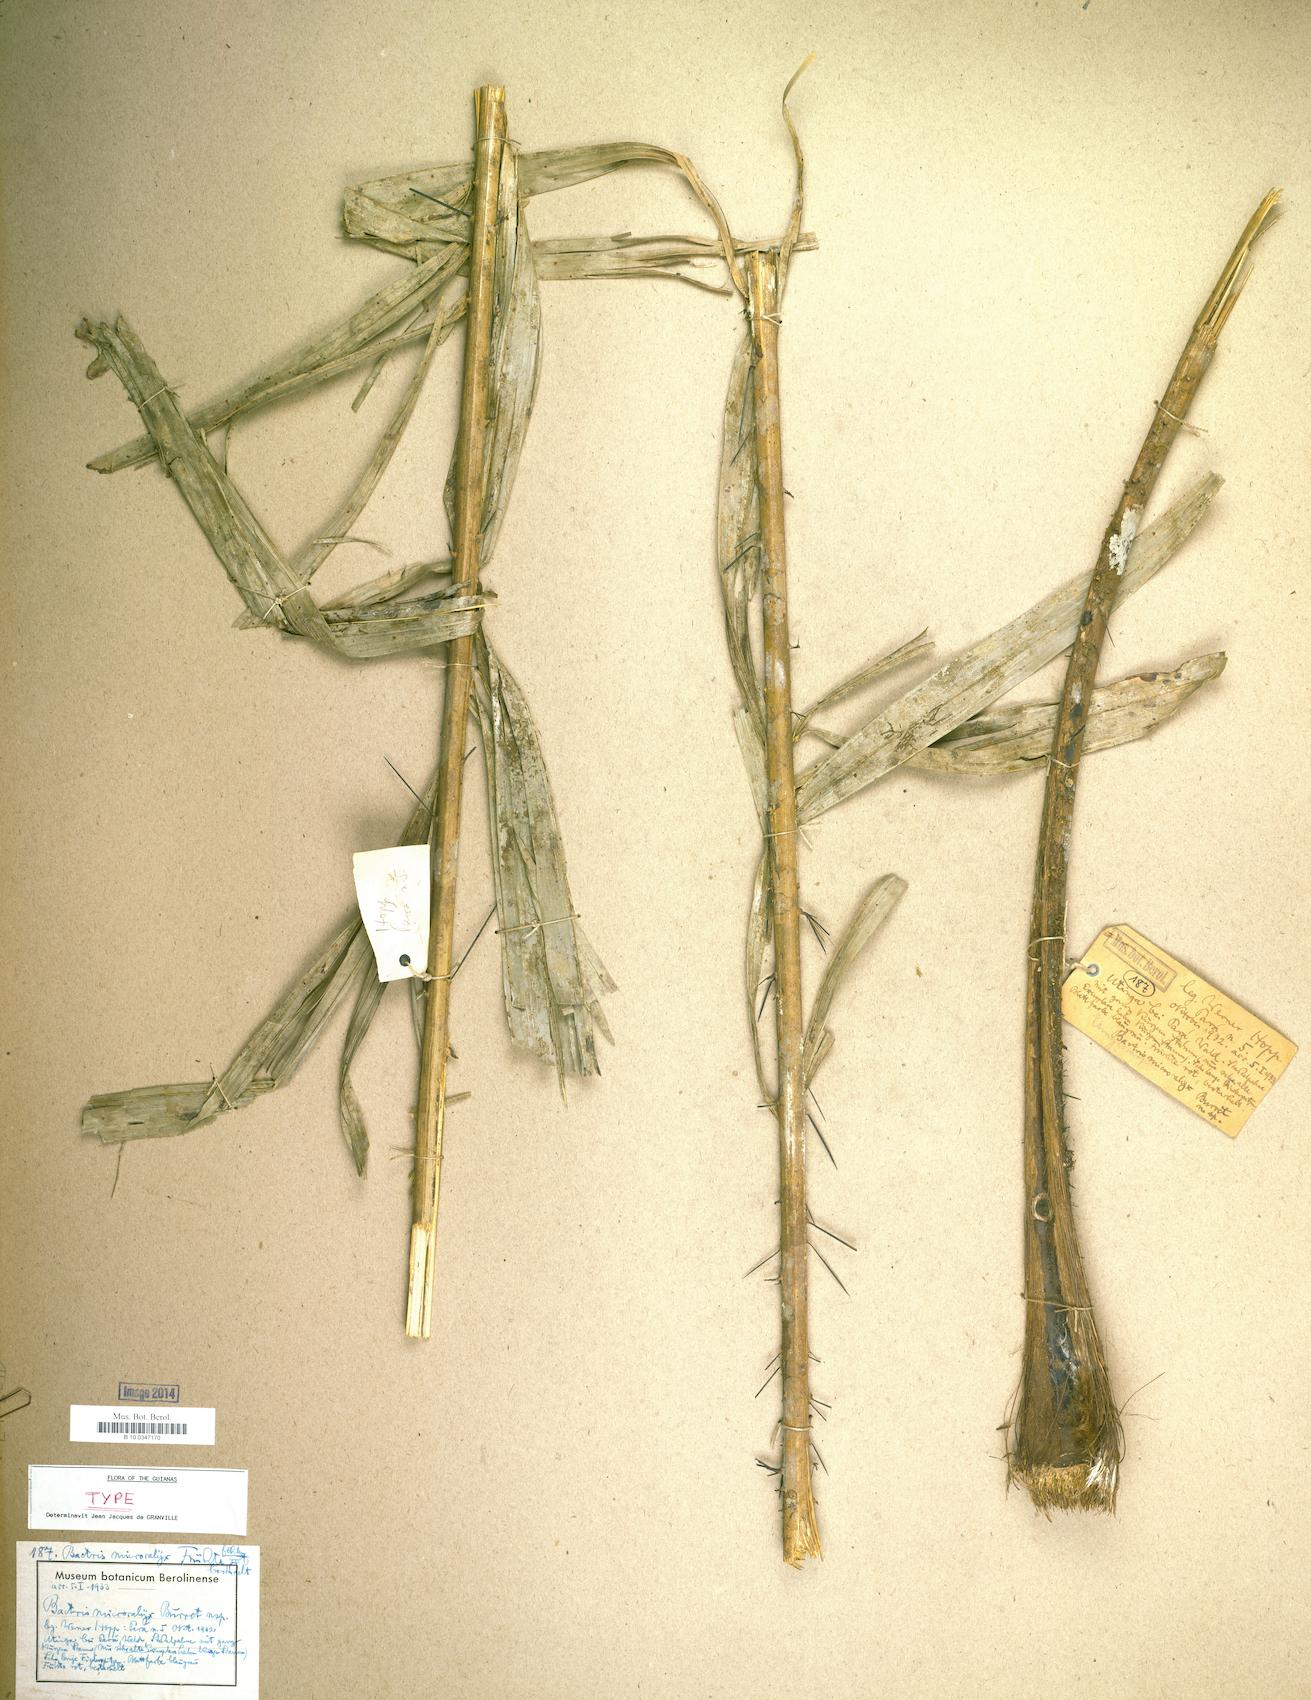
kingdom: Plantae
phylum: Tracheophyta
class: Liliopsida
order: Arecales
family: Arecaceae
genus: Bactris
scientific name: Bactris acanthocarpa
